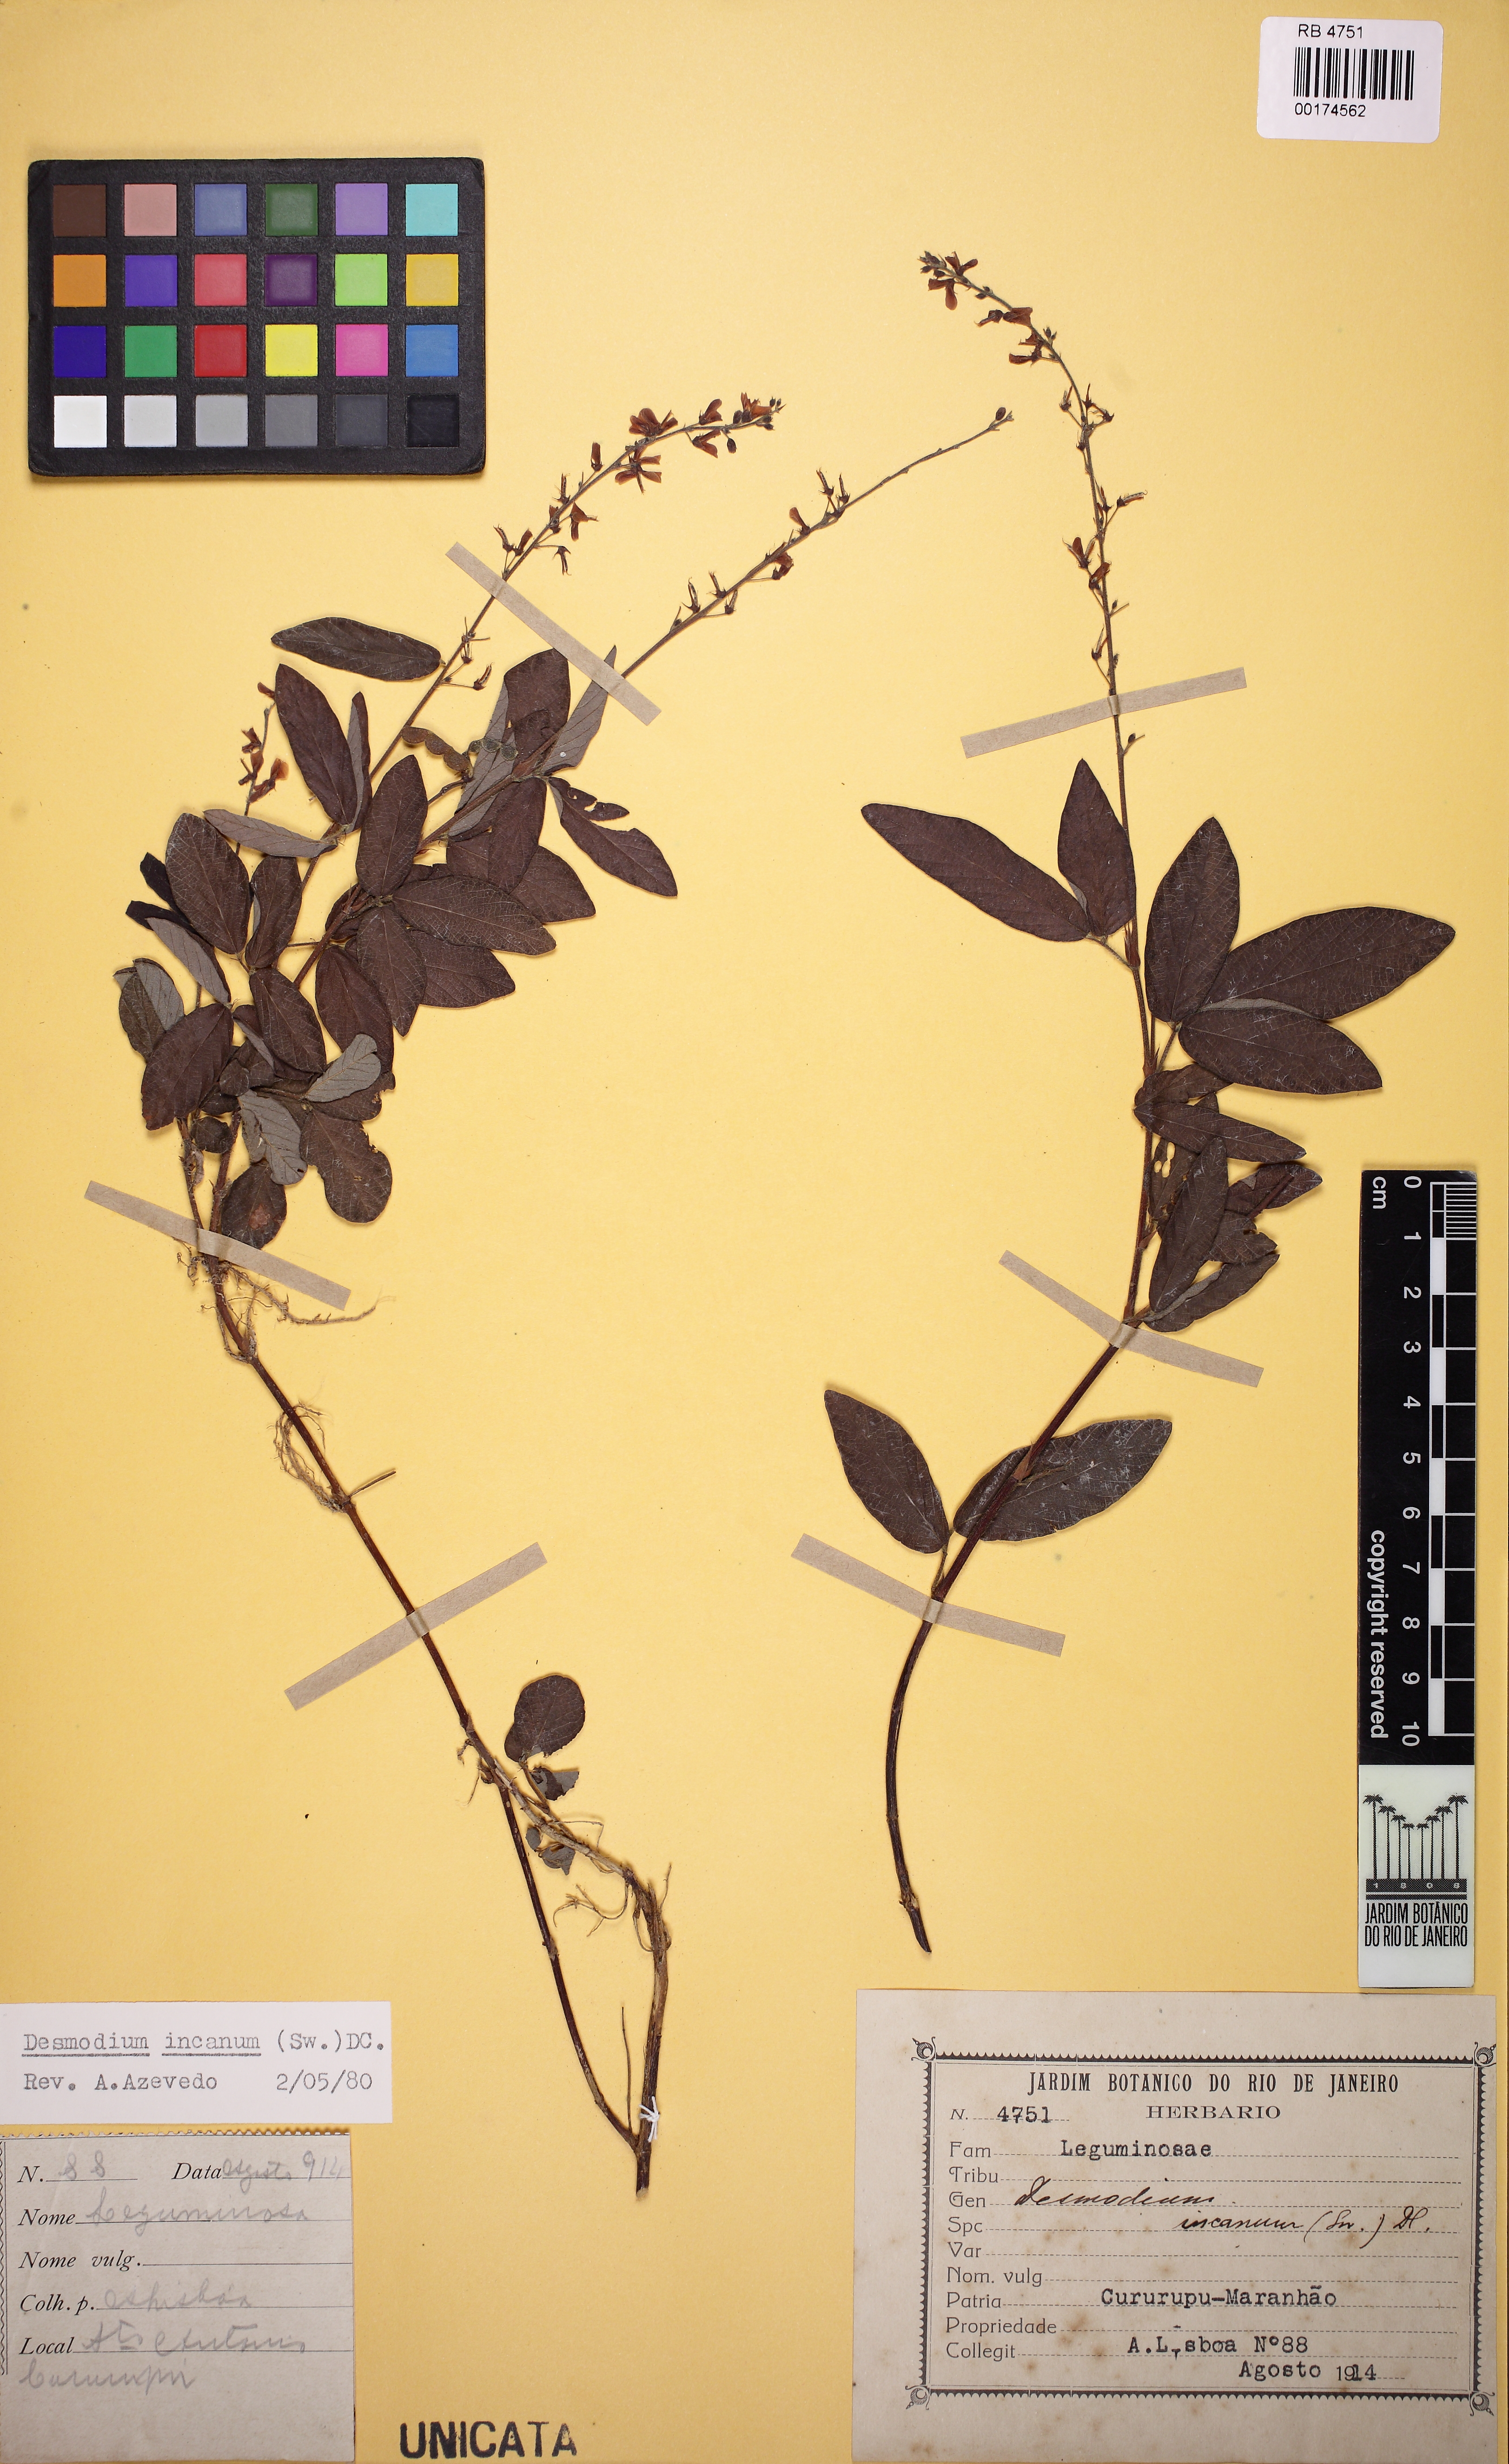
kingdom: Plantae
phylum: Tracheophyta
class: Magnoliopsida
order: Fabales
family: Fabaceae
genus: Desmodium
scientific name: Desmodium incanum
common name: Tickclover
